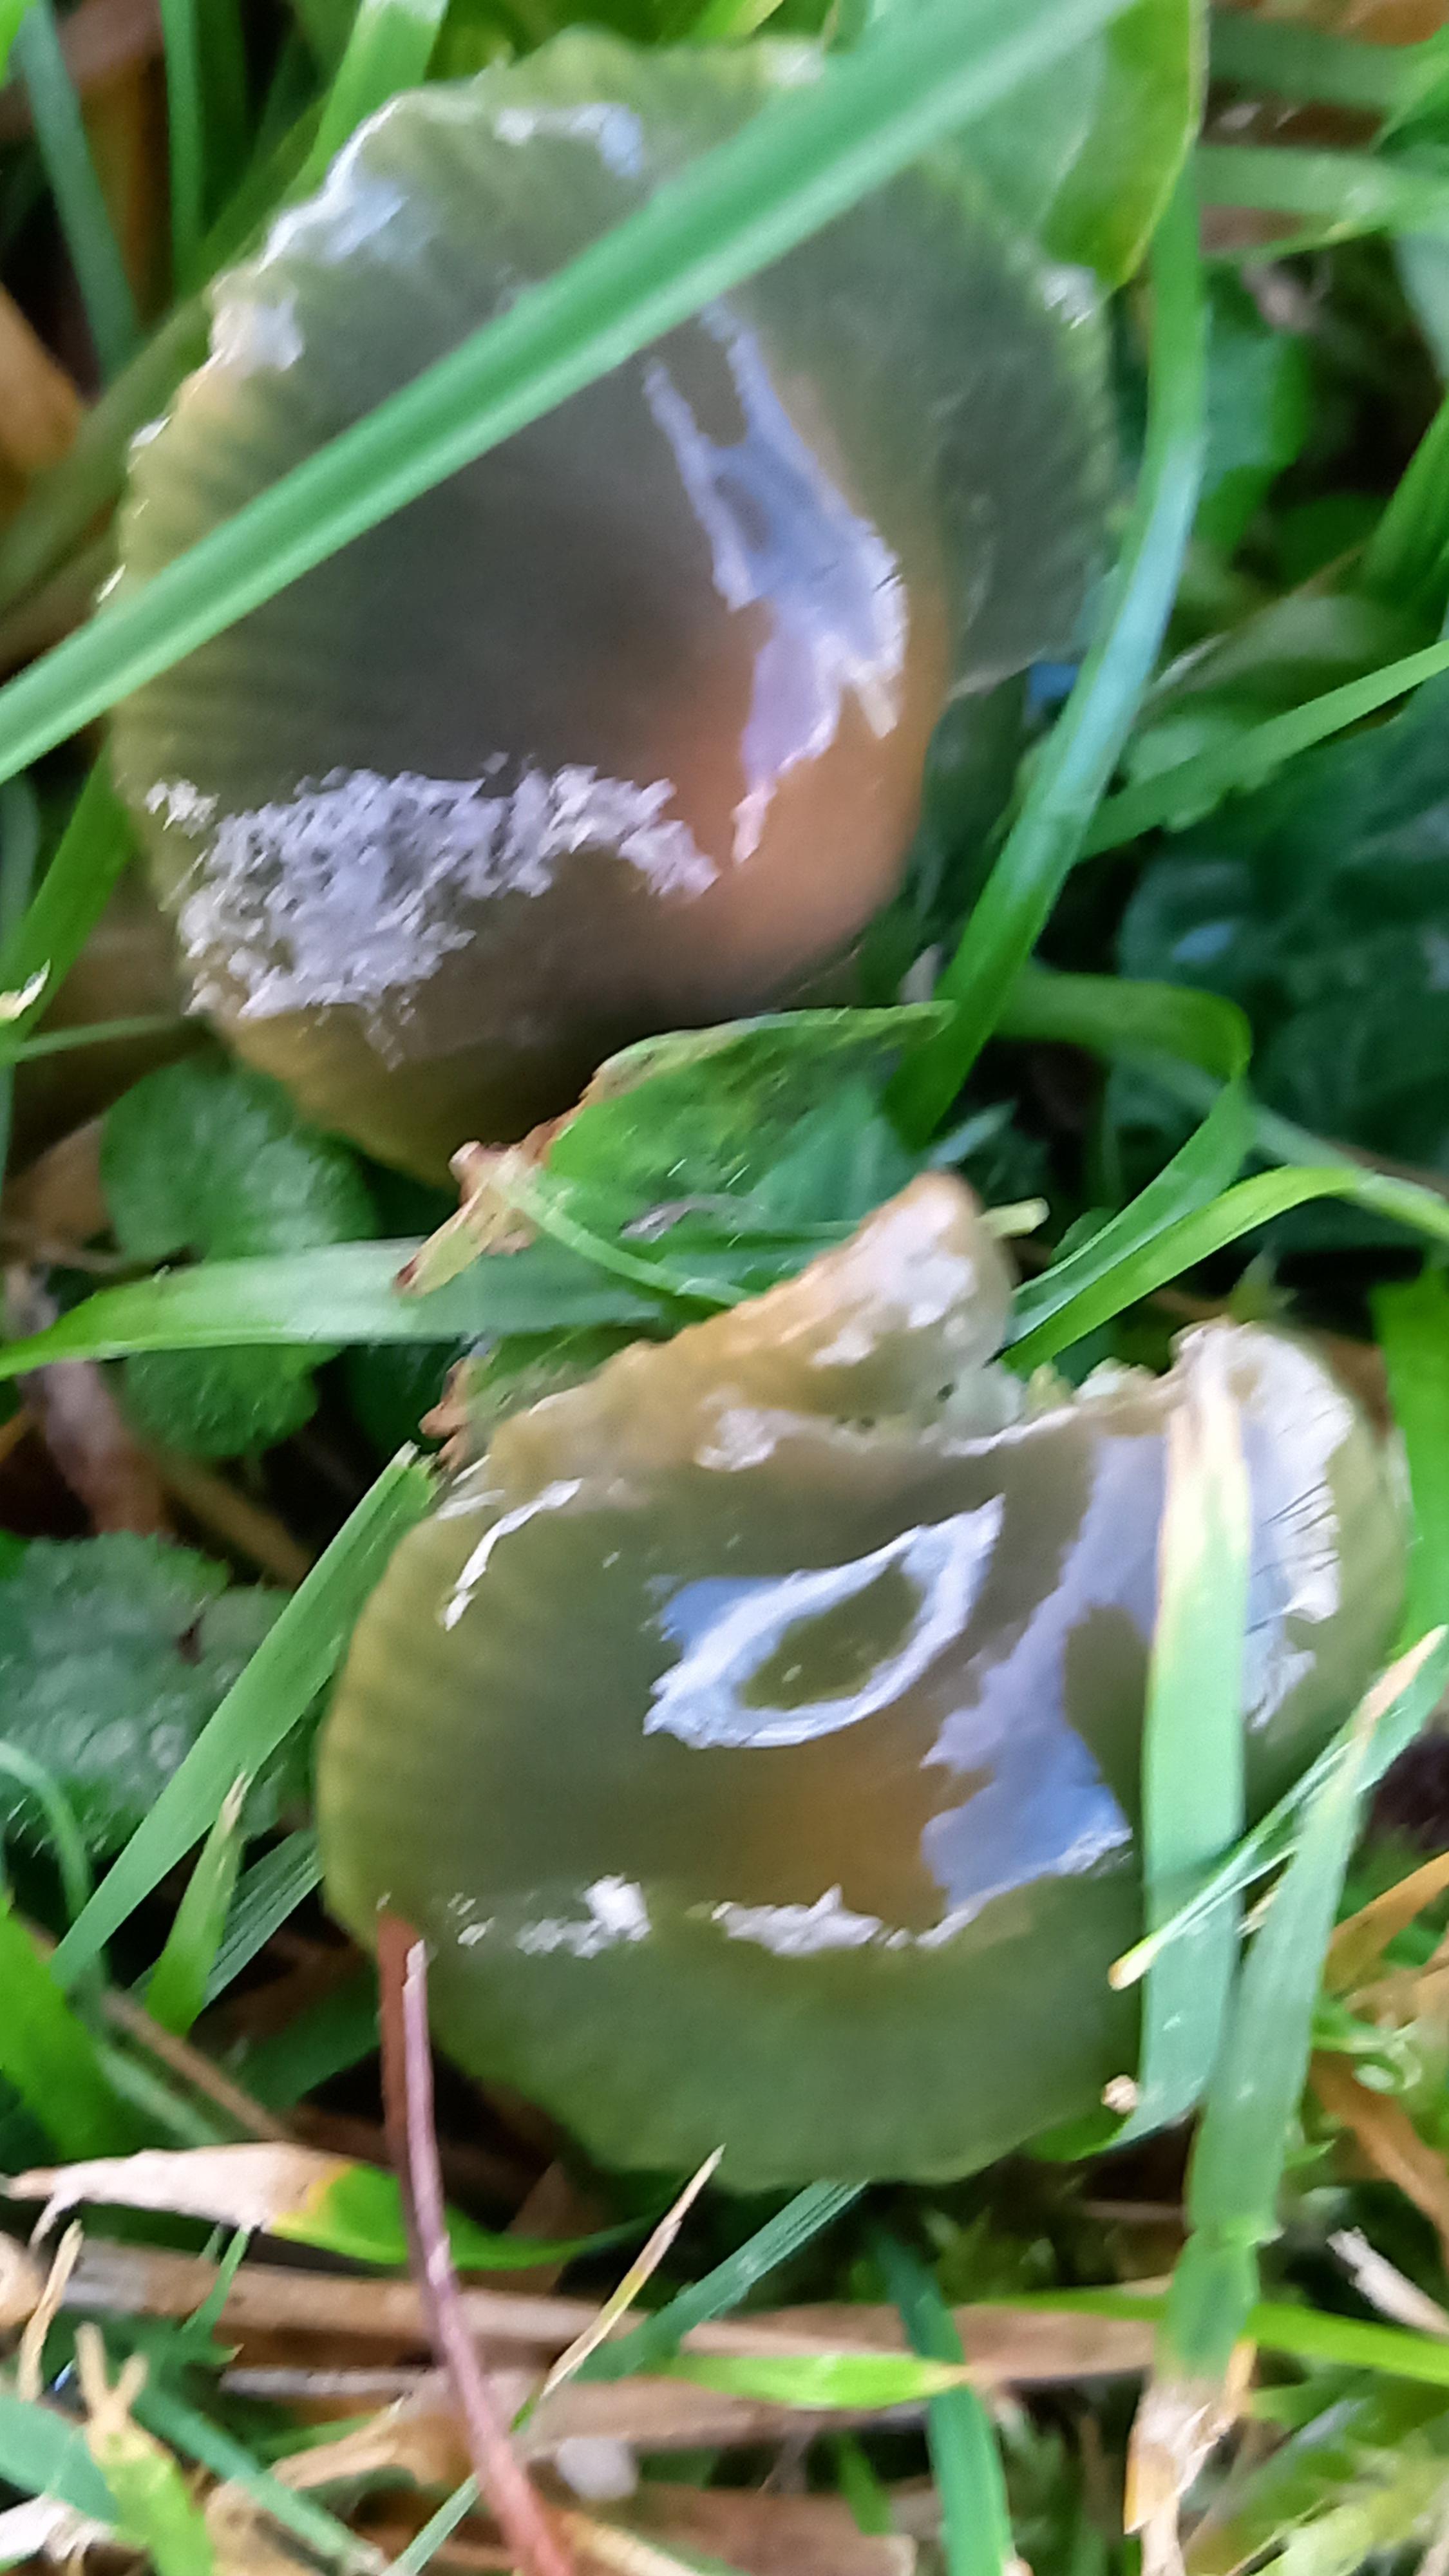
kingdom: Fungi
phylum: Basidiomycota
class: Agaricomycetes
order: Agaricales
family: Hygrophoraceae
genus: Gliophorus
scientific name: Gliophorus psittacinus
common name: papegøje-vokshat
